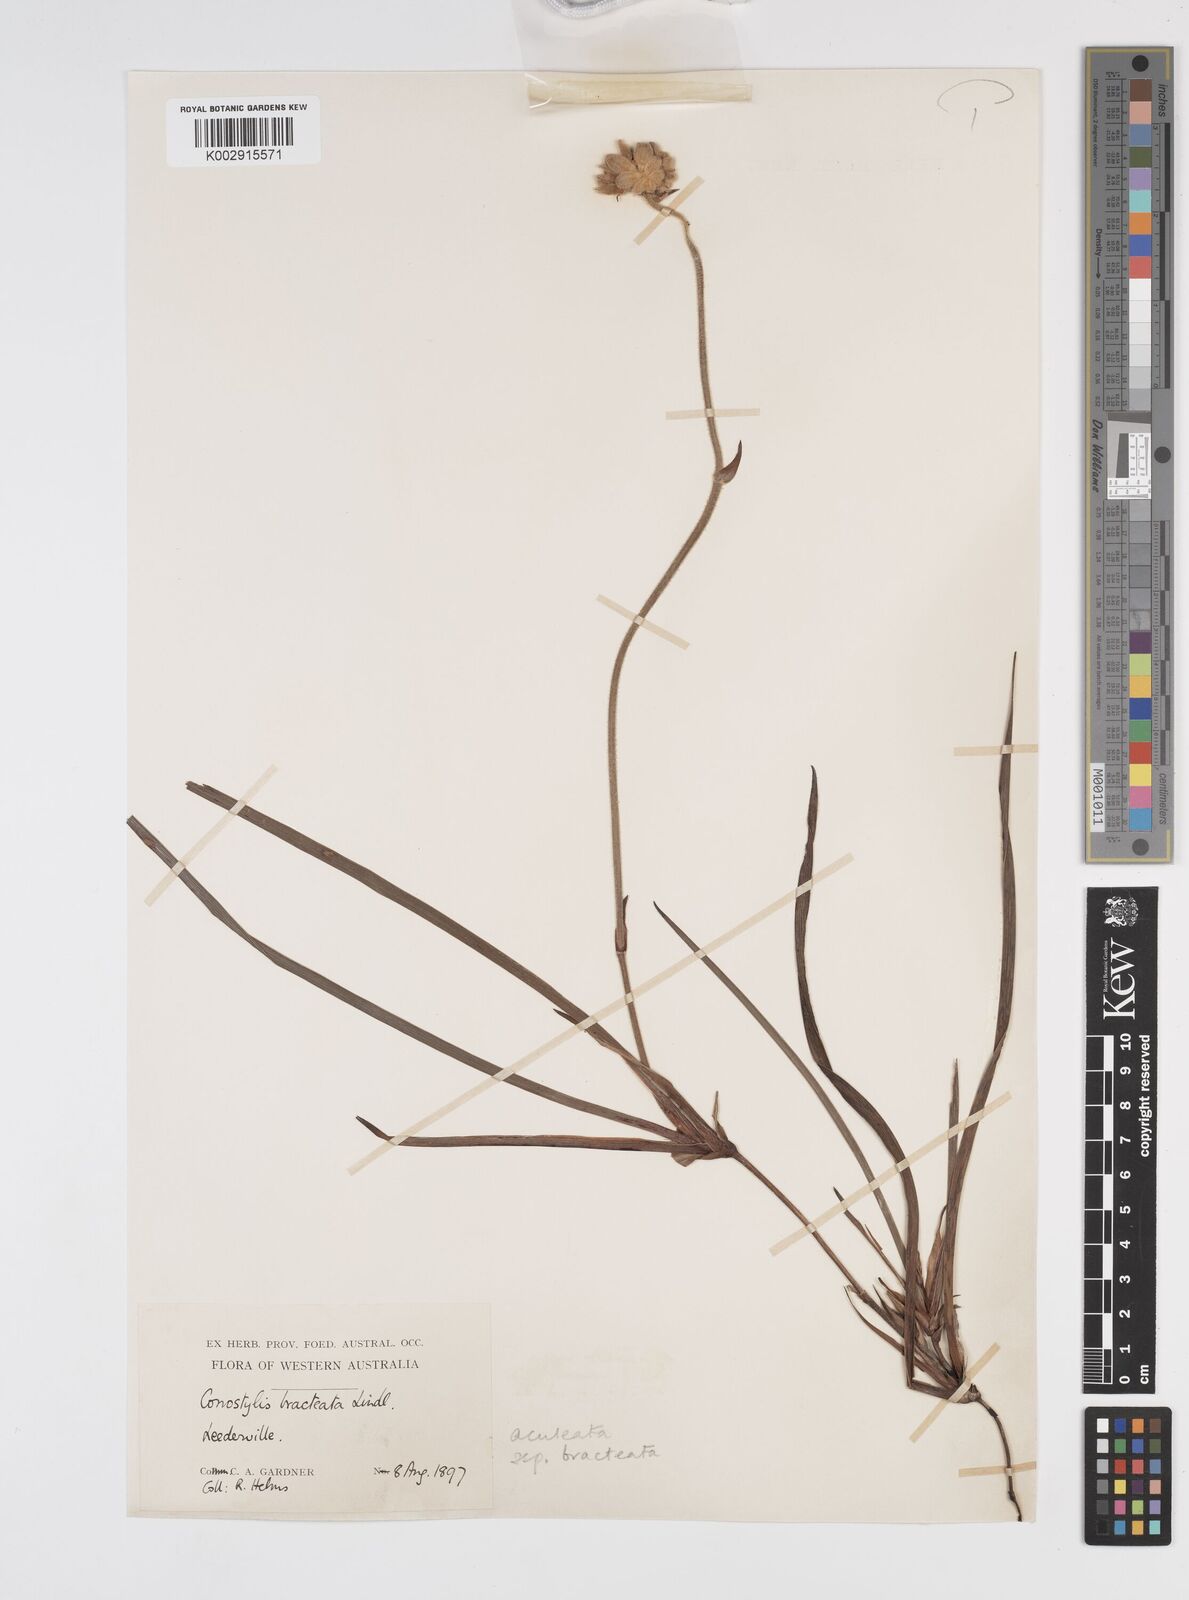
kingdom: Plantae
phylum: Tracheophyta
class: Liliopsida
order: Commelinales
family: Haemodoraceae
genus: Conostylis
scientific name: Conostylis bracteata
